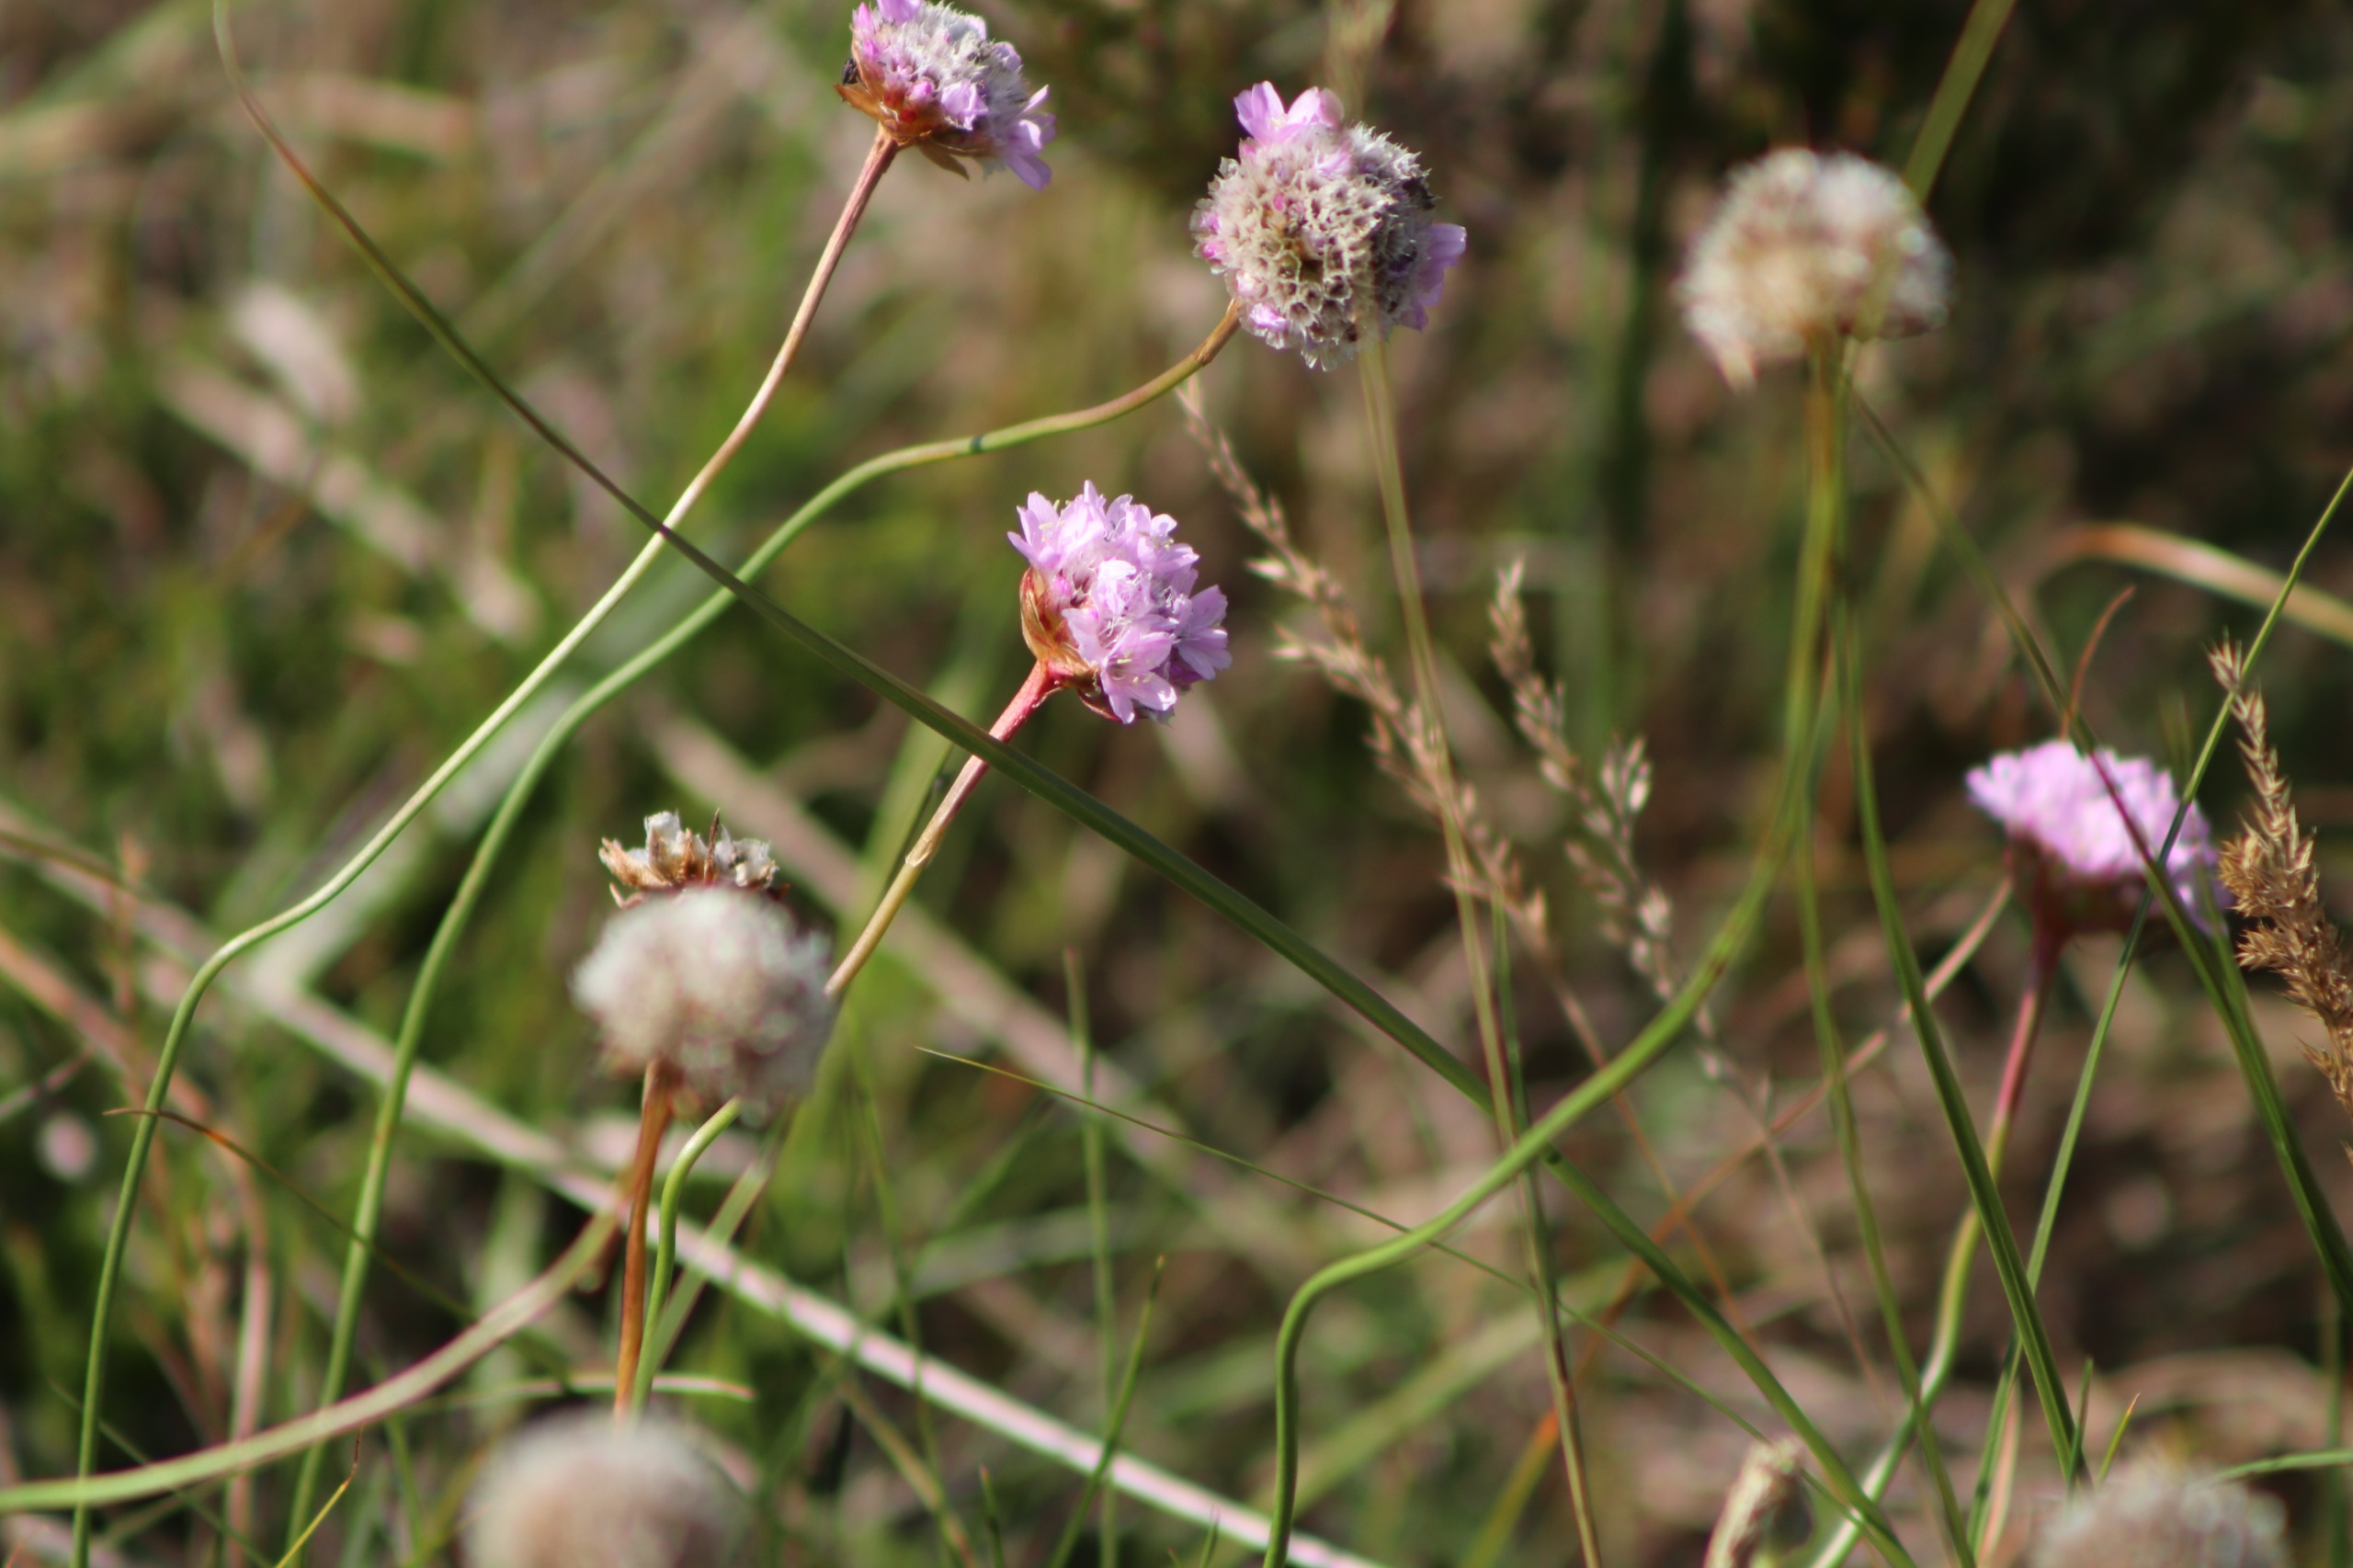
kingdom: Plantae
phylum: Tracheophyta
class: Magnoliopsida
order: Caryophyllales
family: Plumbaginaceae
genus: Armeria
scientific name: Armeria maritima
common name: Engelskgræs
